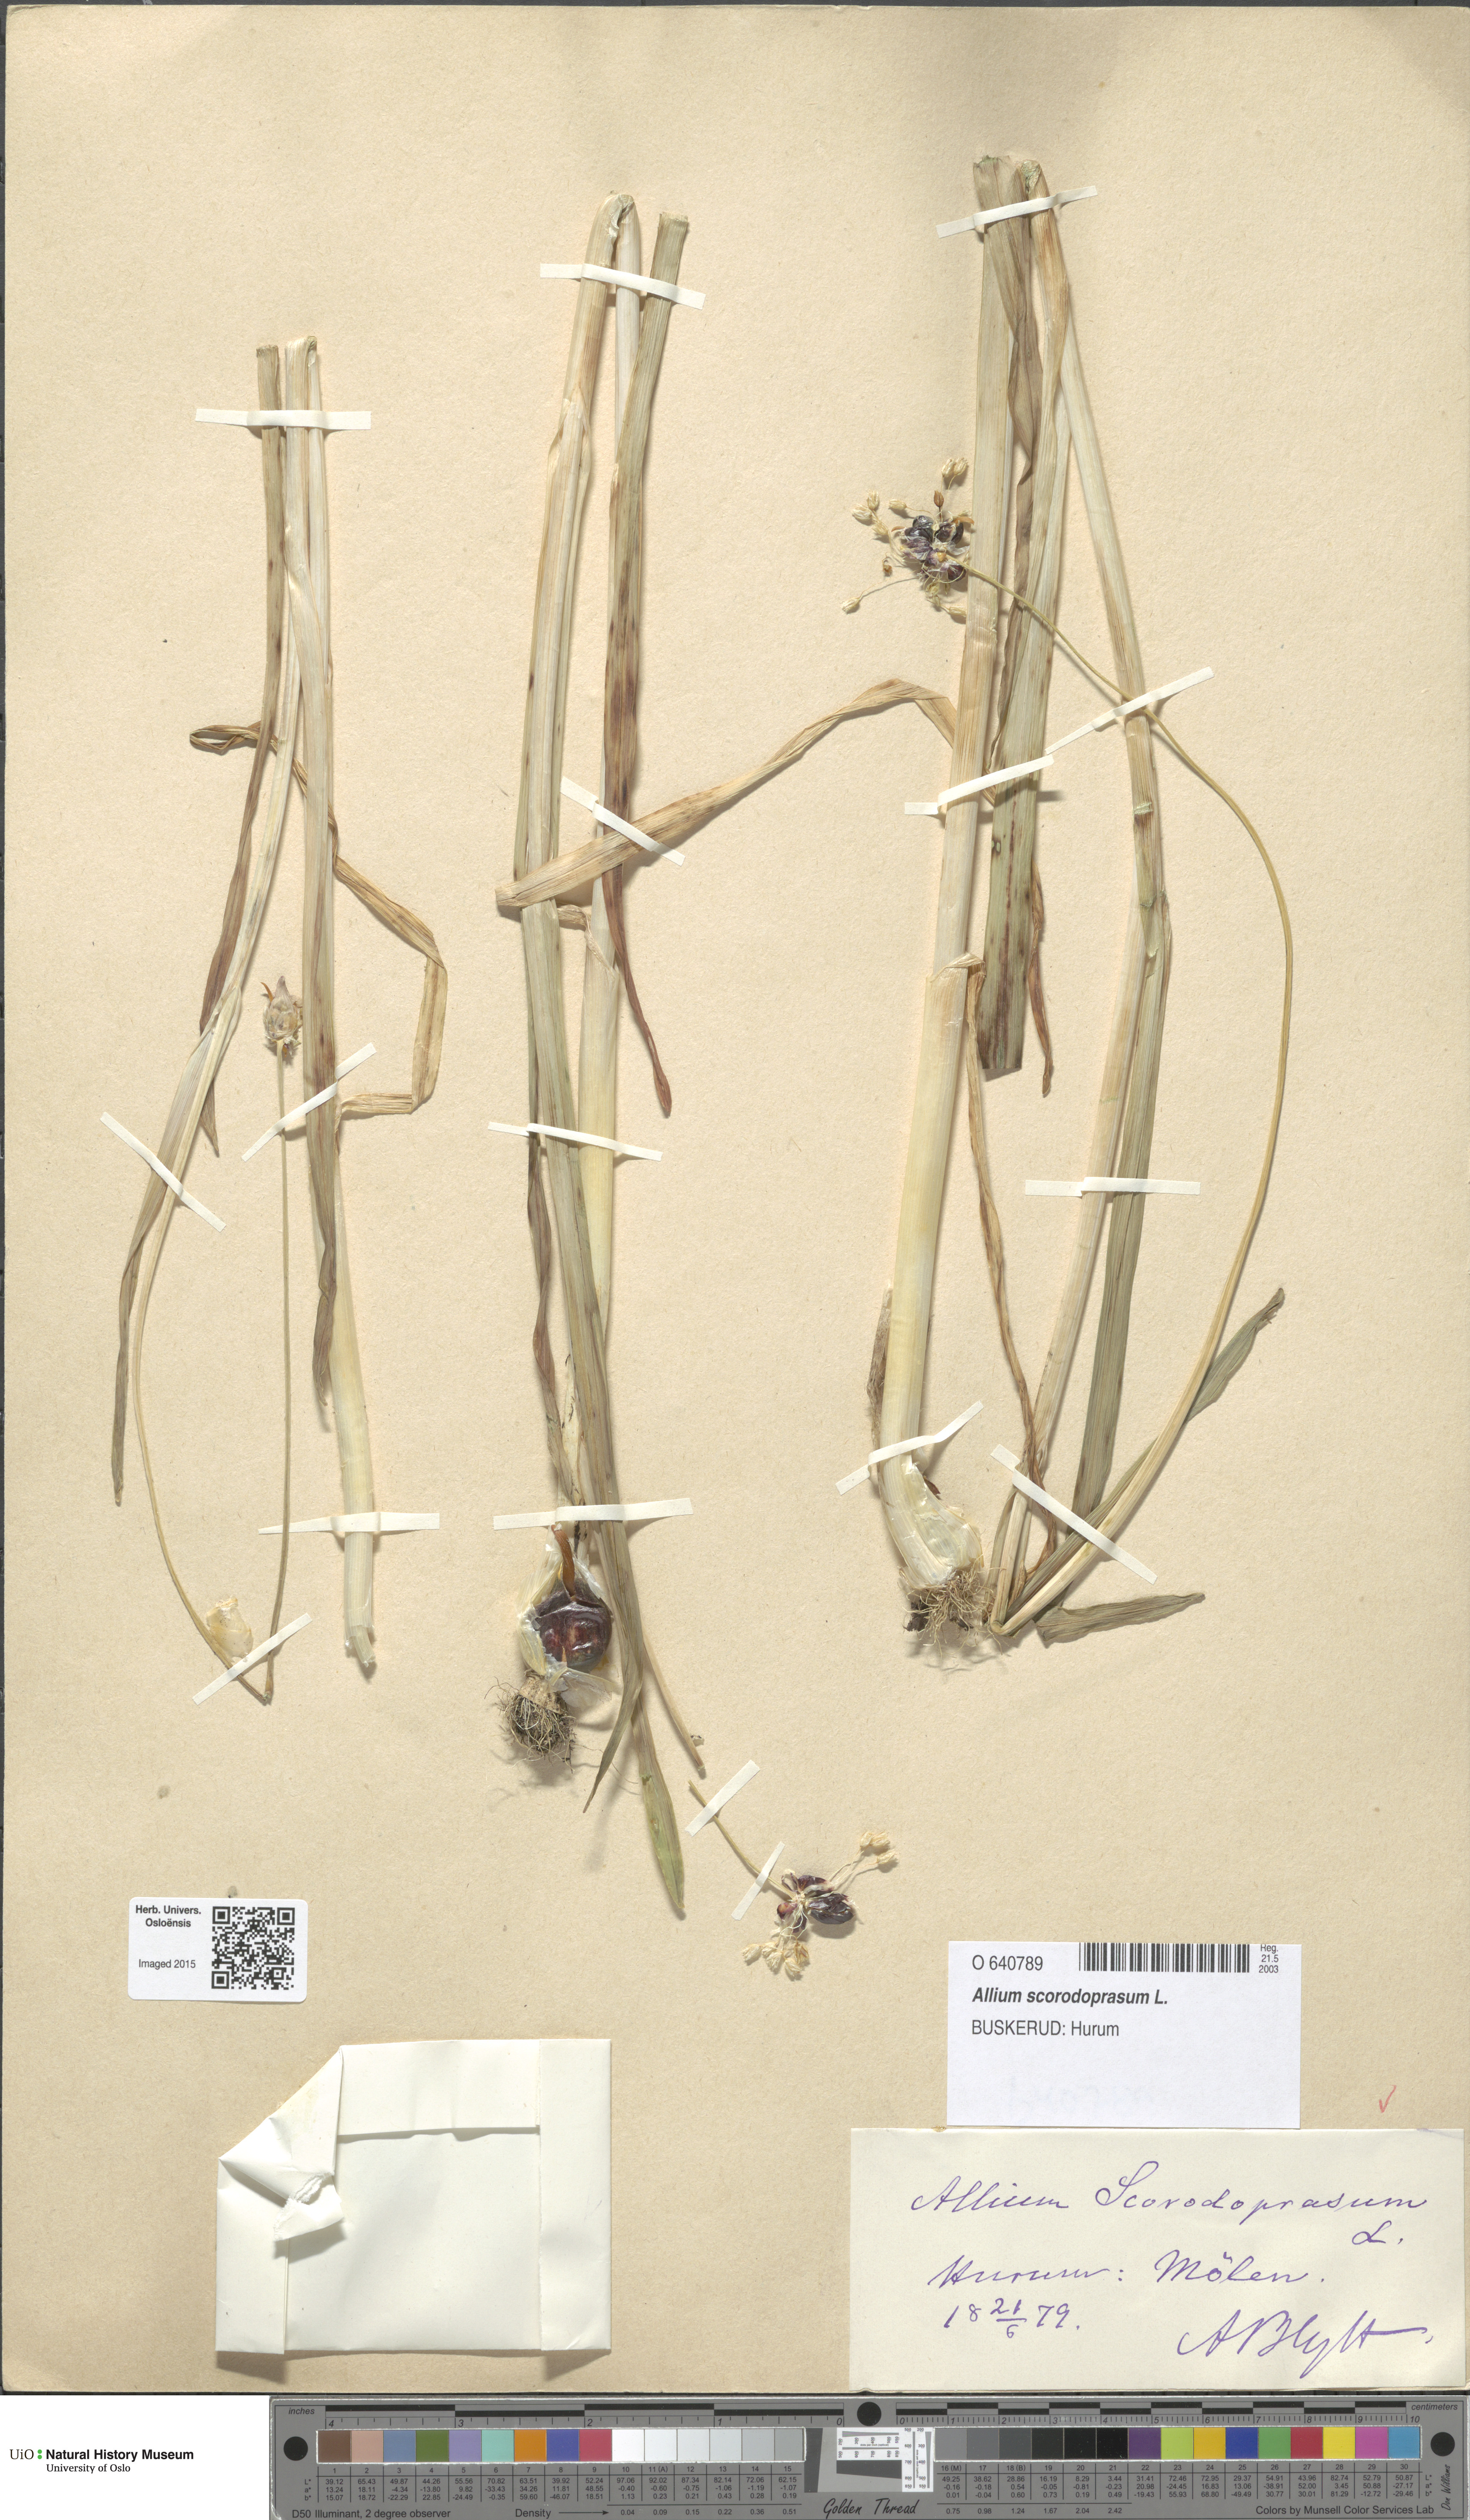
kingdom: Plantae
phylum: Tracheophyta
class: Liliopsida
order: Asparagales
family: Amaryllidaceae
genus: Allium
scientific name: Allium scorodoprasum
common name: Sand leek
